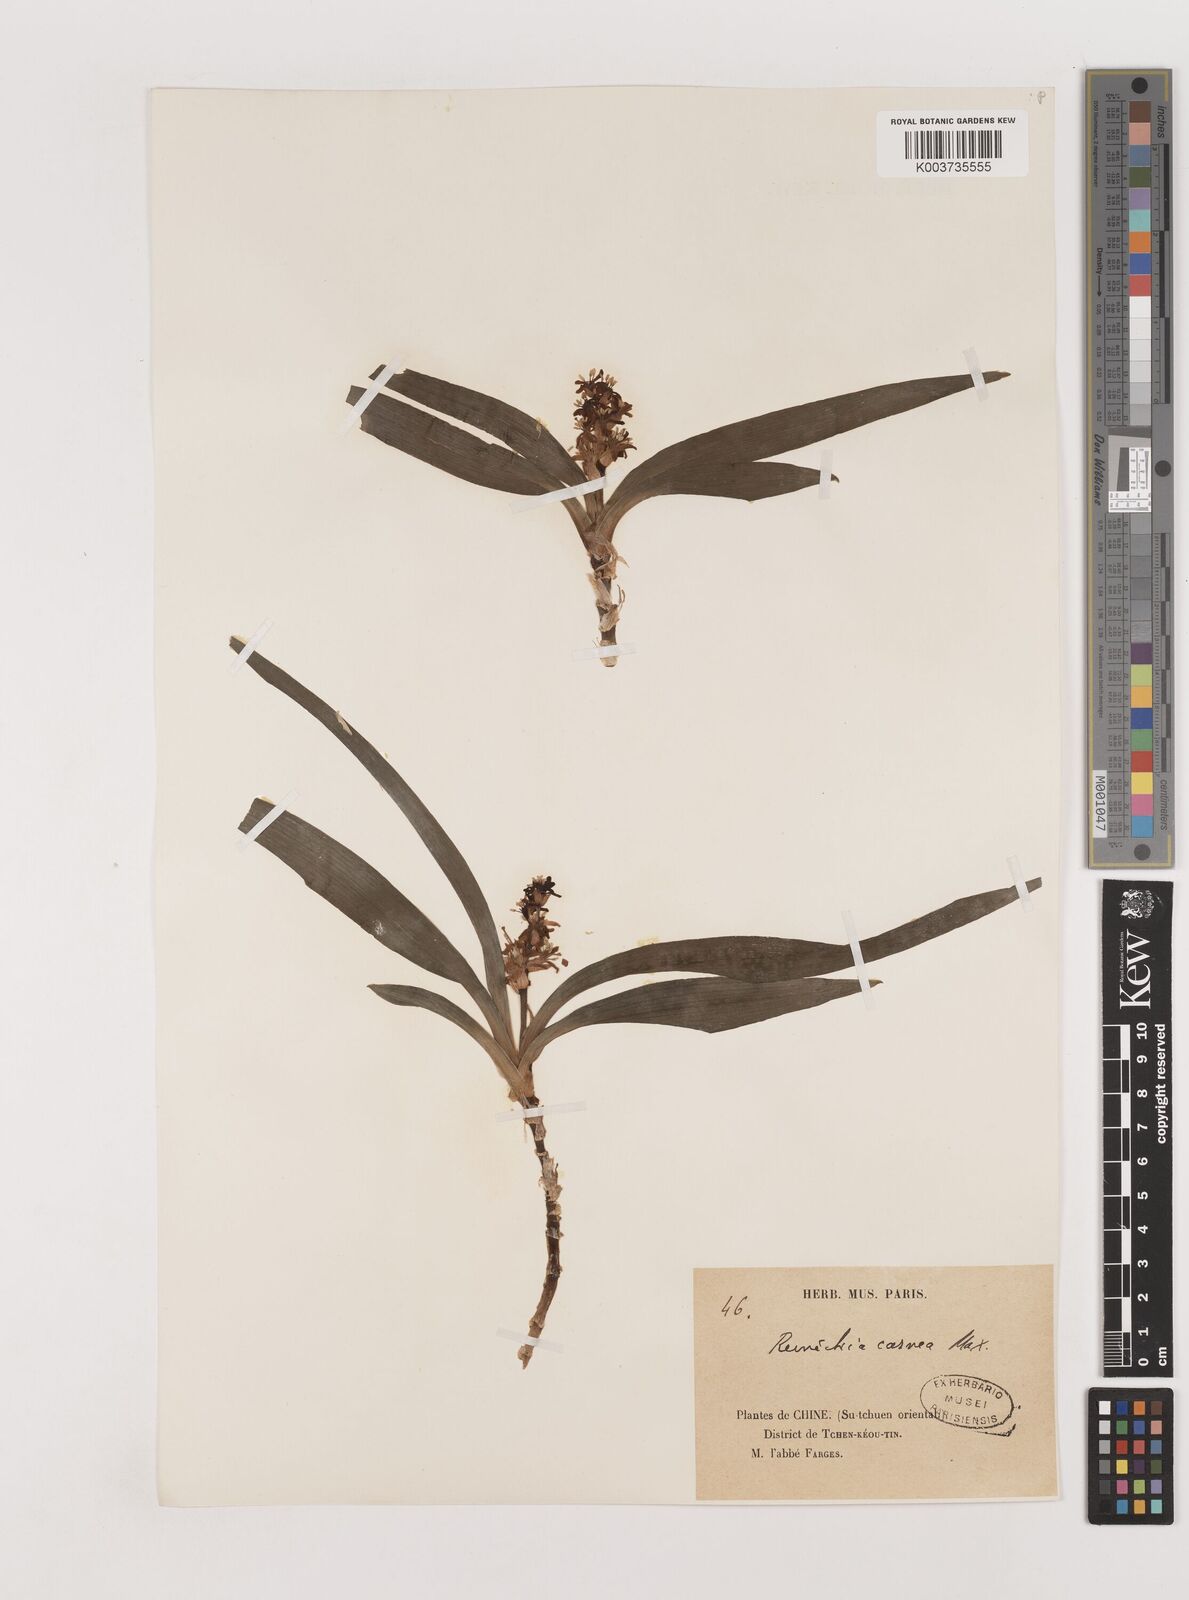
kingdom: Plantae
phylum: Tracheophyta
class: Liliopsida
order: Asparagales
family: Asparagaceae
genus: Reineckea
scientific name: Reineckea carnea
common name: Reineckea
